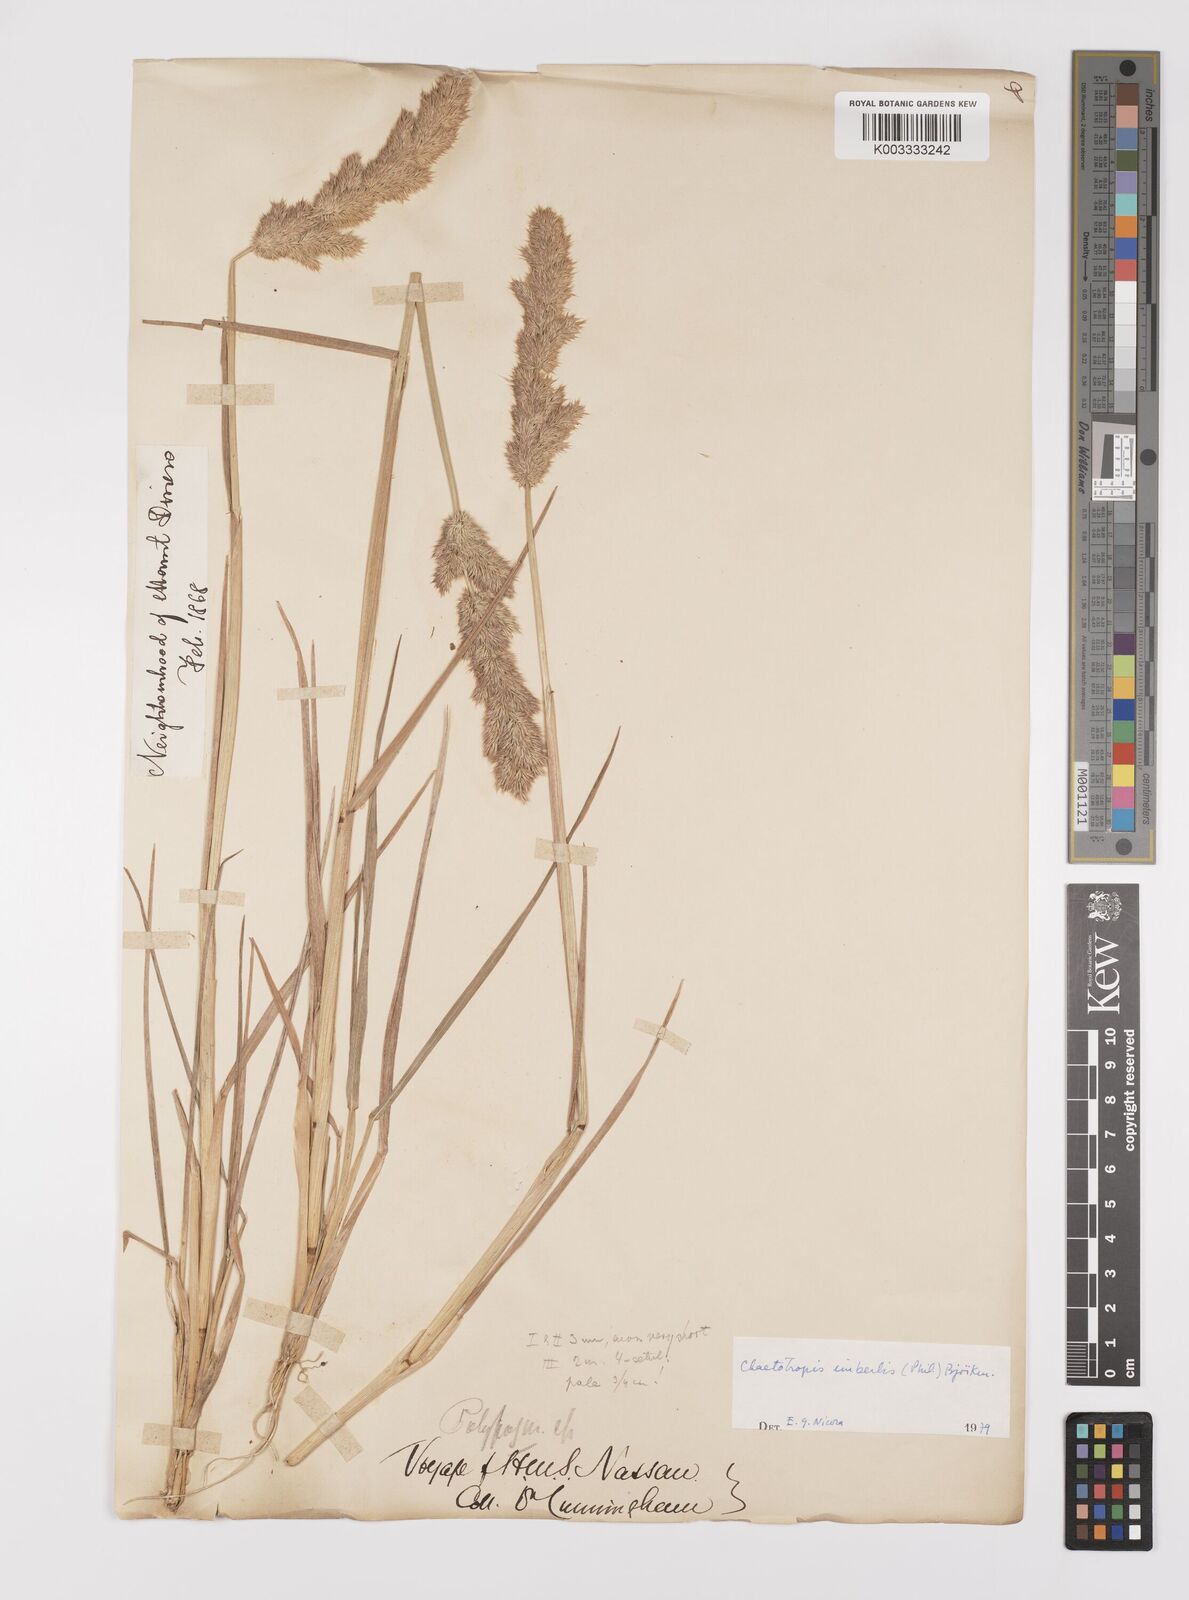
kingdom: Plantae
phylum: Tracheophyta
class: Liliopsida
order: Poales
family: Poaceae
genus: Polypogon
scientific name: Polypogon imberbis
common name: Beardless rabbitsfoot grass
